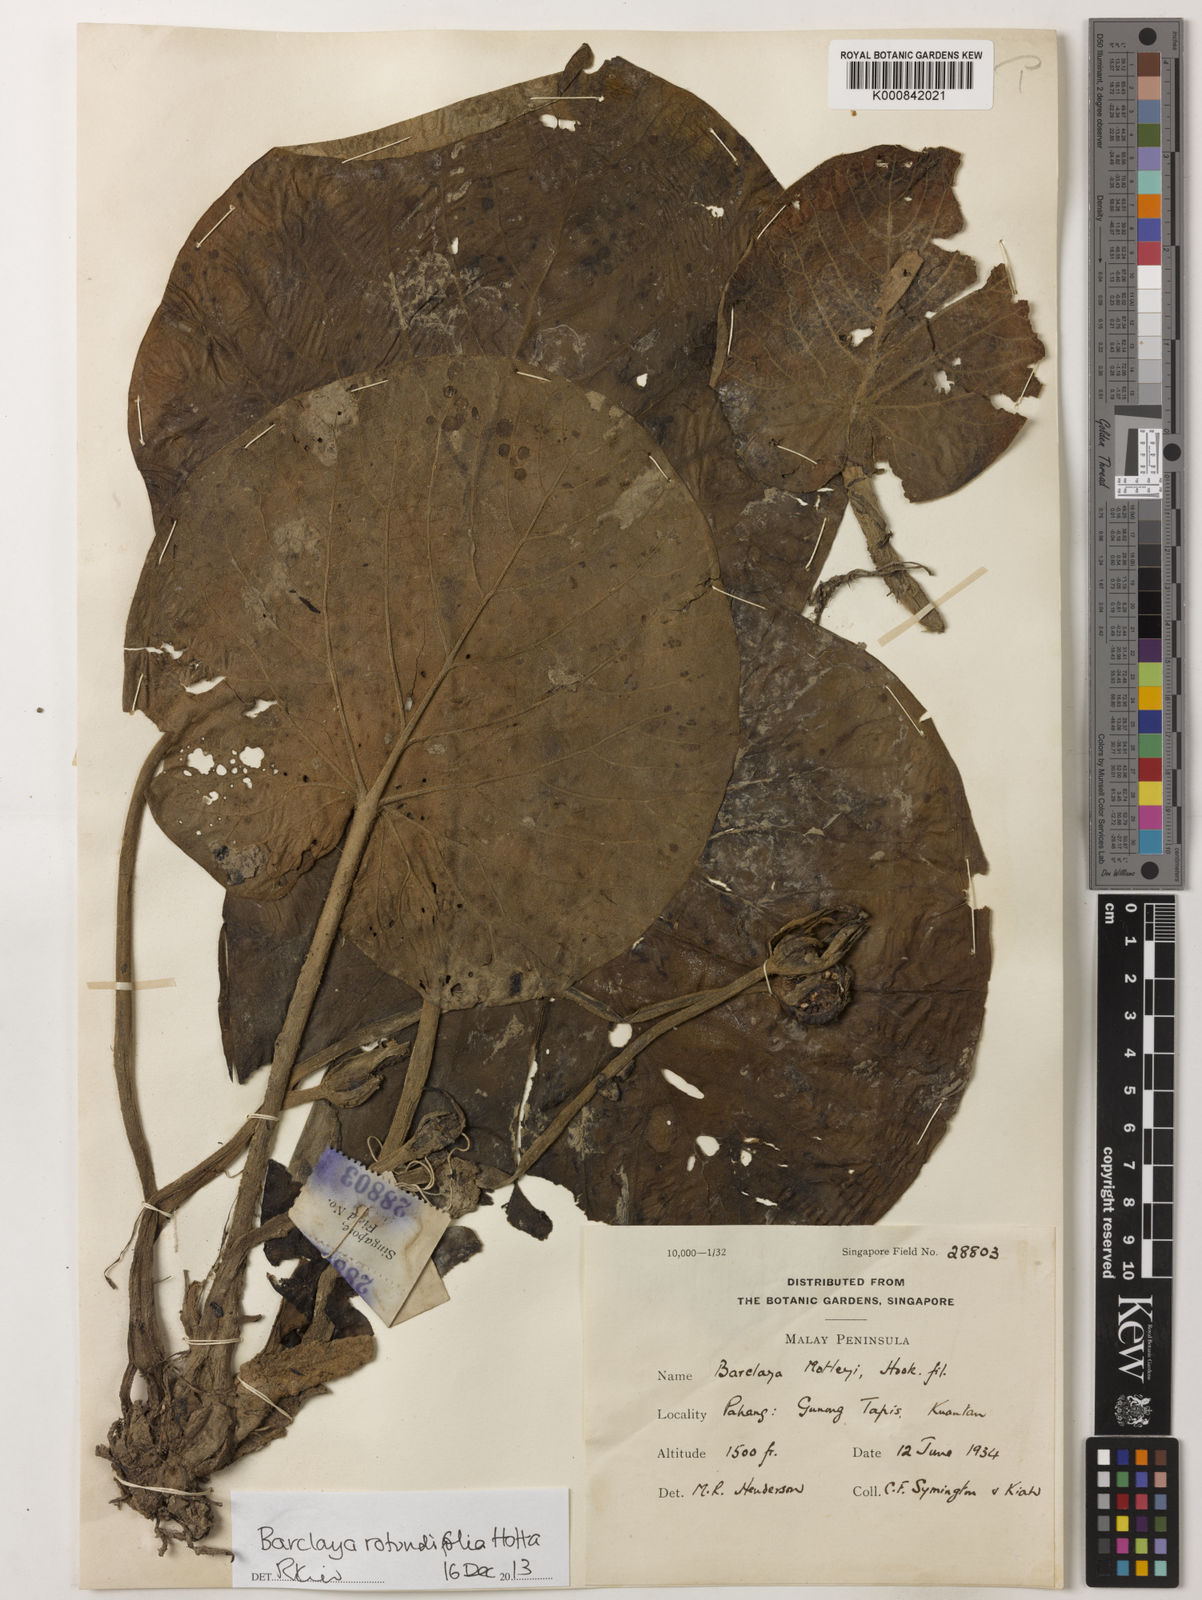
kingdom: Plantae
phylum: Tracheophyta
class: Magnoliopsida
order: Nymphaeales
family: Nymphaeaceae
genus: Barclaya
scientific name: Barclaya rotundifolia
